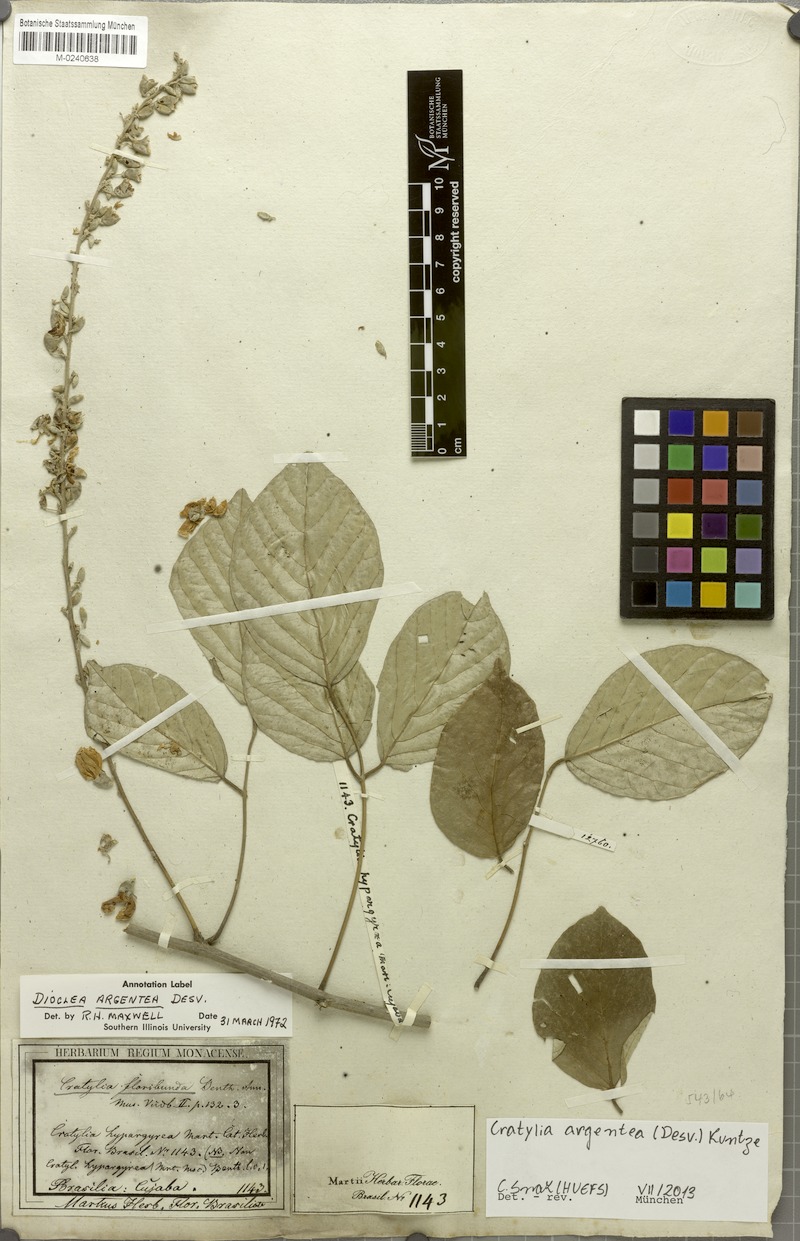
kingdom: Plantae
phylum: Tracheophyta
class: Magnoliopsida
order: Fabales
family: Fabaceae
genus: Cratylia
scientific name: Cratylia argentea
